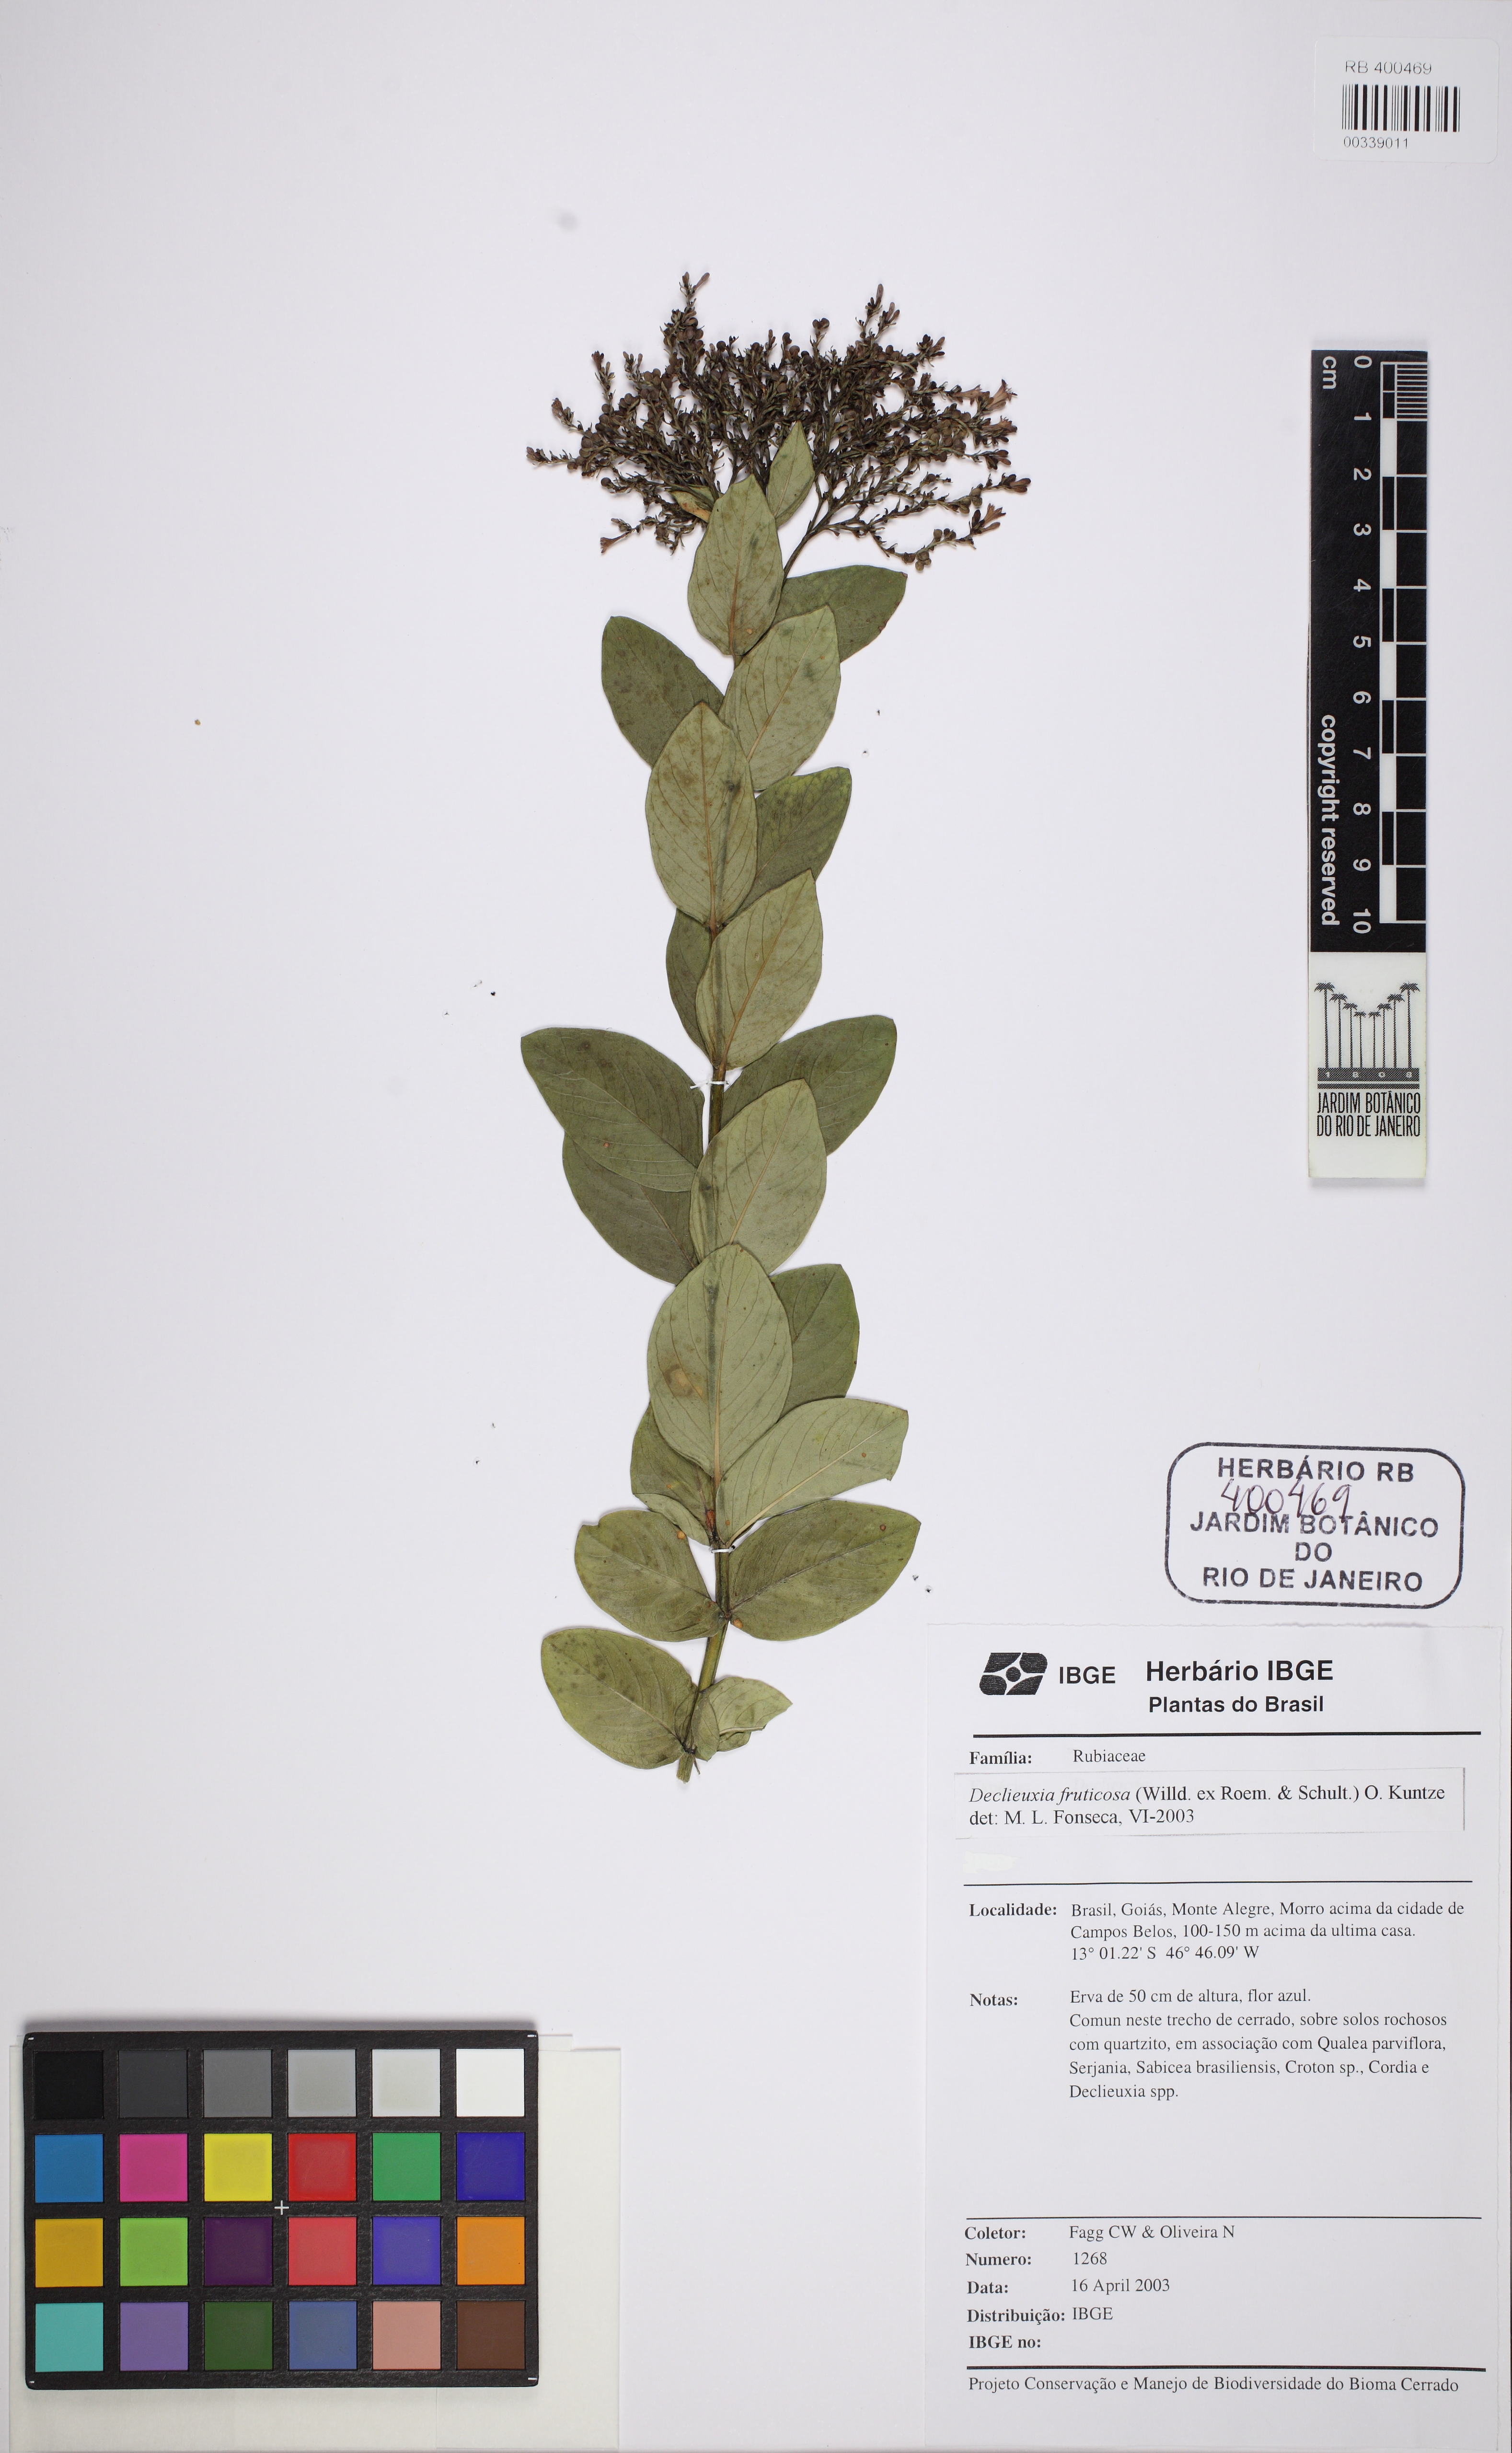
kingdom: Plantae
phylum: Tracheophyta
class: Magnoliopsida
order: Gentianales
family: Rubiaceae
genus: Declieuxia
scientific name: Declieuxia fruticosa
